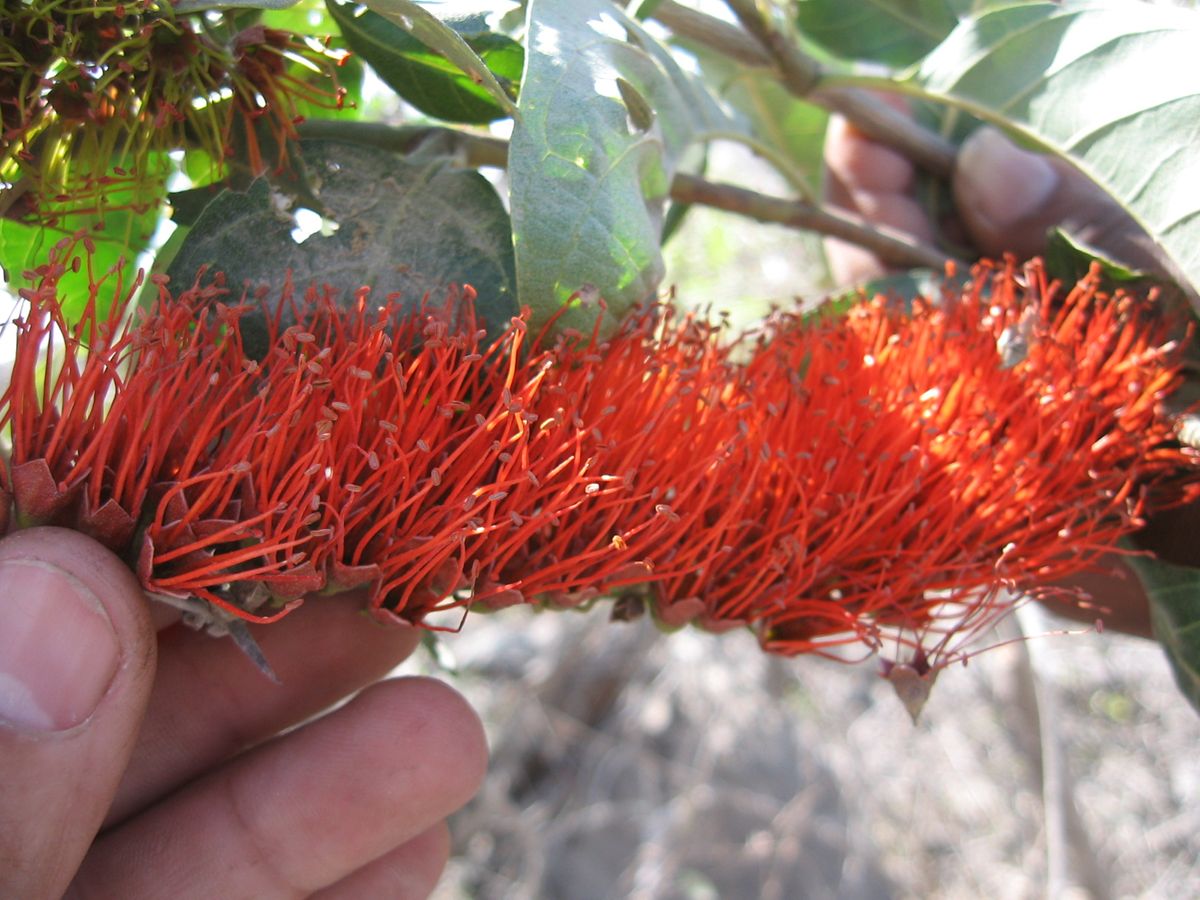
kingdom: Plantae
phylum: Tracheophyta
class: Magnoliopsida
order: Myrtales
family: Combretaceae
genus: Combretum
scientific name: Combretum
